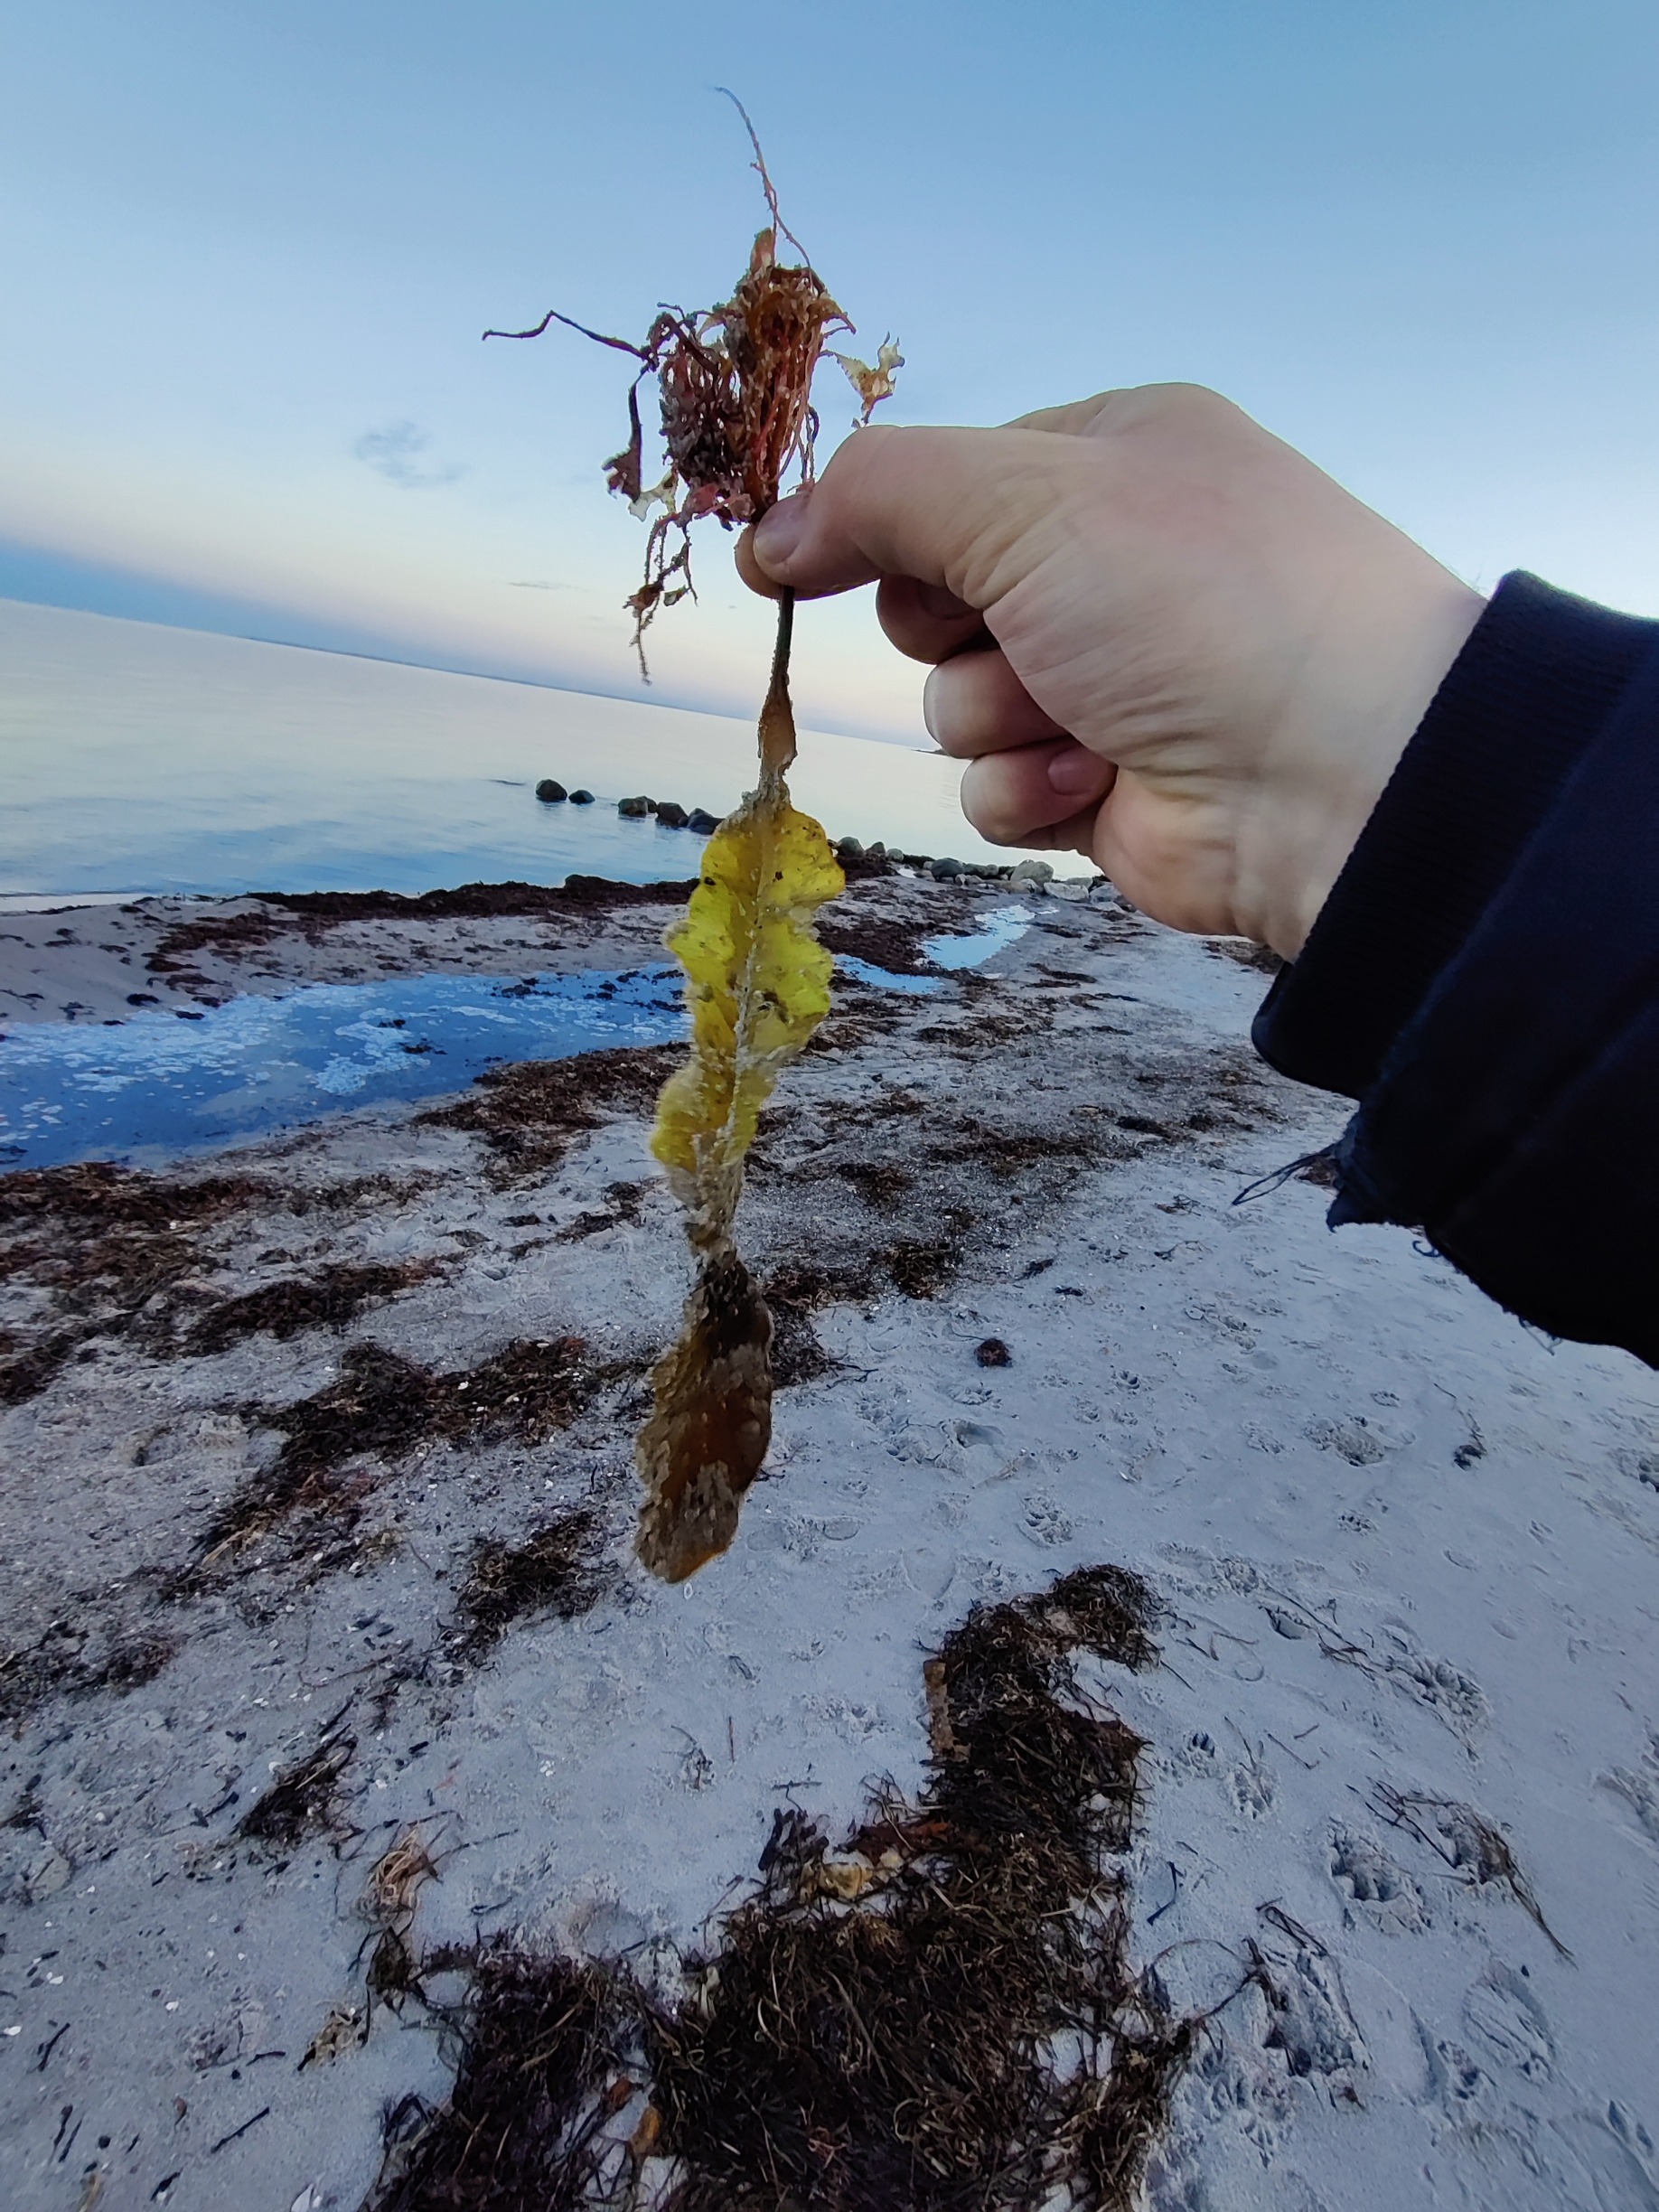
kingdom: Chromista
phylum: Ochrophyta
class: Phaeophyceae
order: Laminariales
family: Laminariaceae
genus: Saccharina
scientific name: Saccharina latissima
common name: Sukkertang
